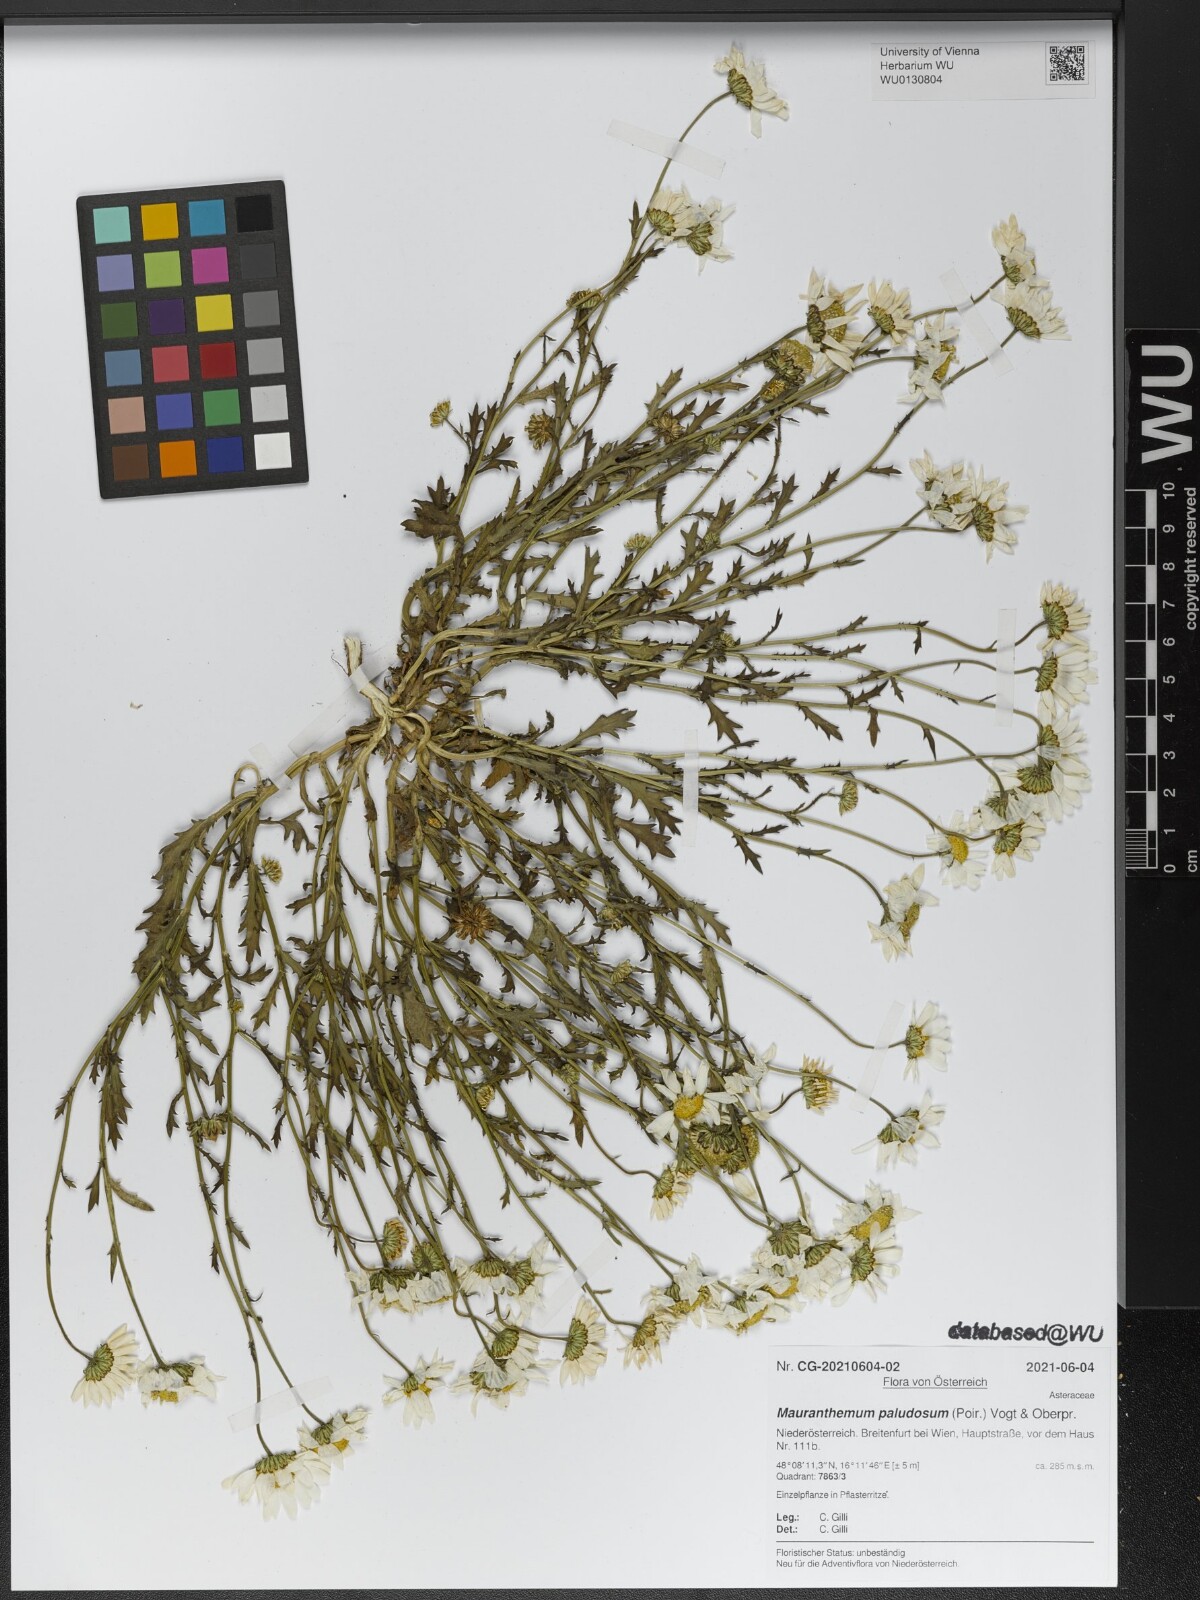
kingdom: Plantae
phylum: Tracheophyta
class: Magnoliopsida
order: Asterales
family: Asteraceae
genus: Mauranthemum
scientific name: Mauranthemum paludosum
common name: Sunflower
